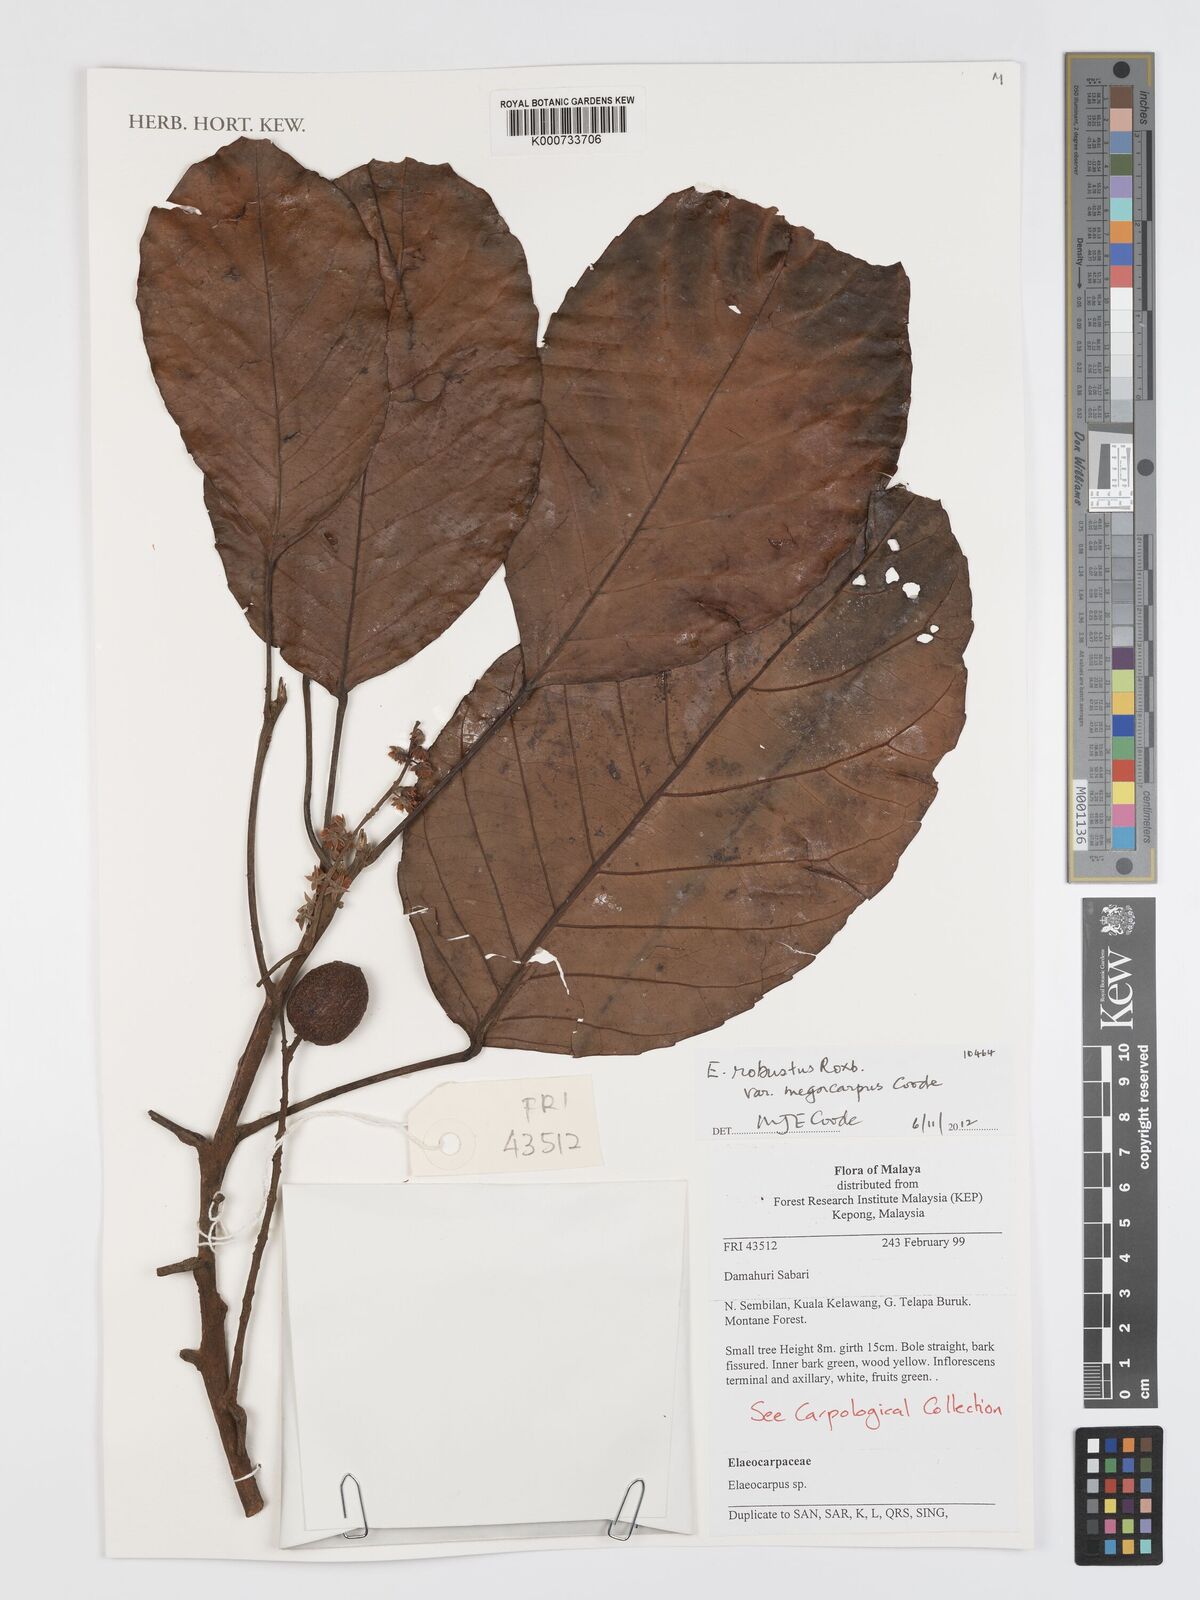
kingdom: Plantae
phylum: Tracheophyta
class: Magnoliopsida
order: Oxalidales
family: Elaeocarpaceae
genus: Elaeocarpus
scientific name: Elaeocarpus robustus
